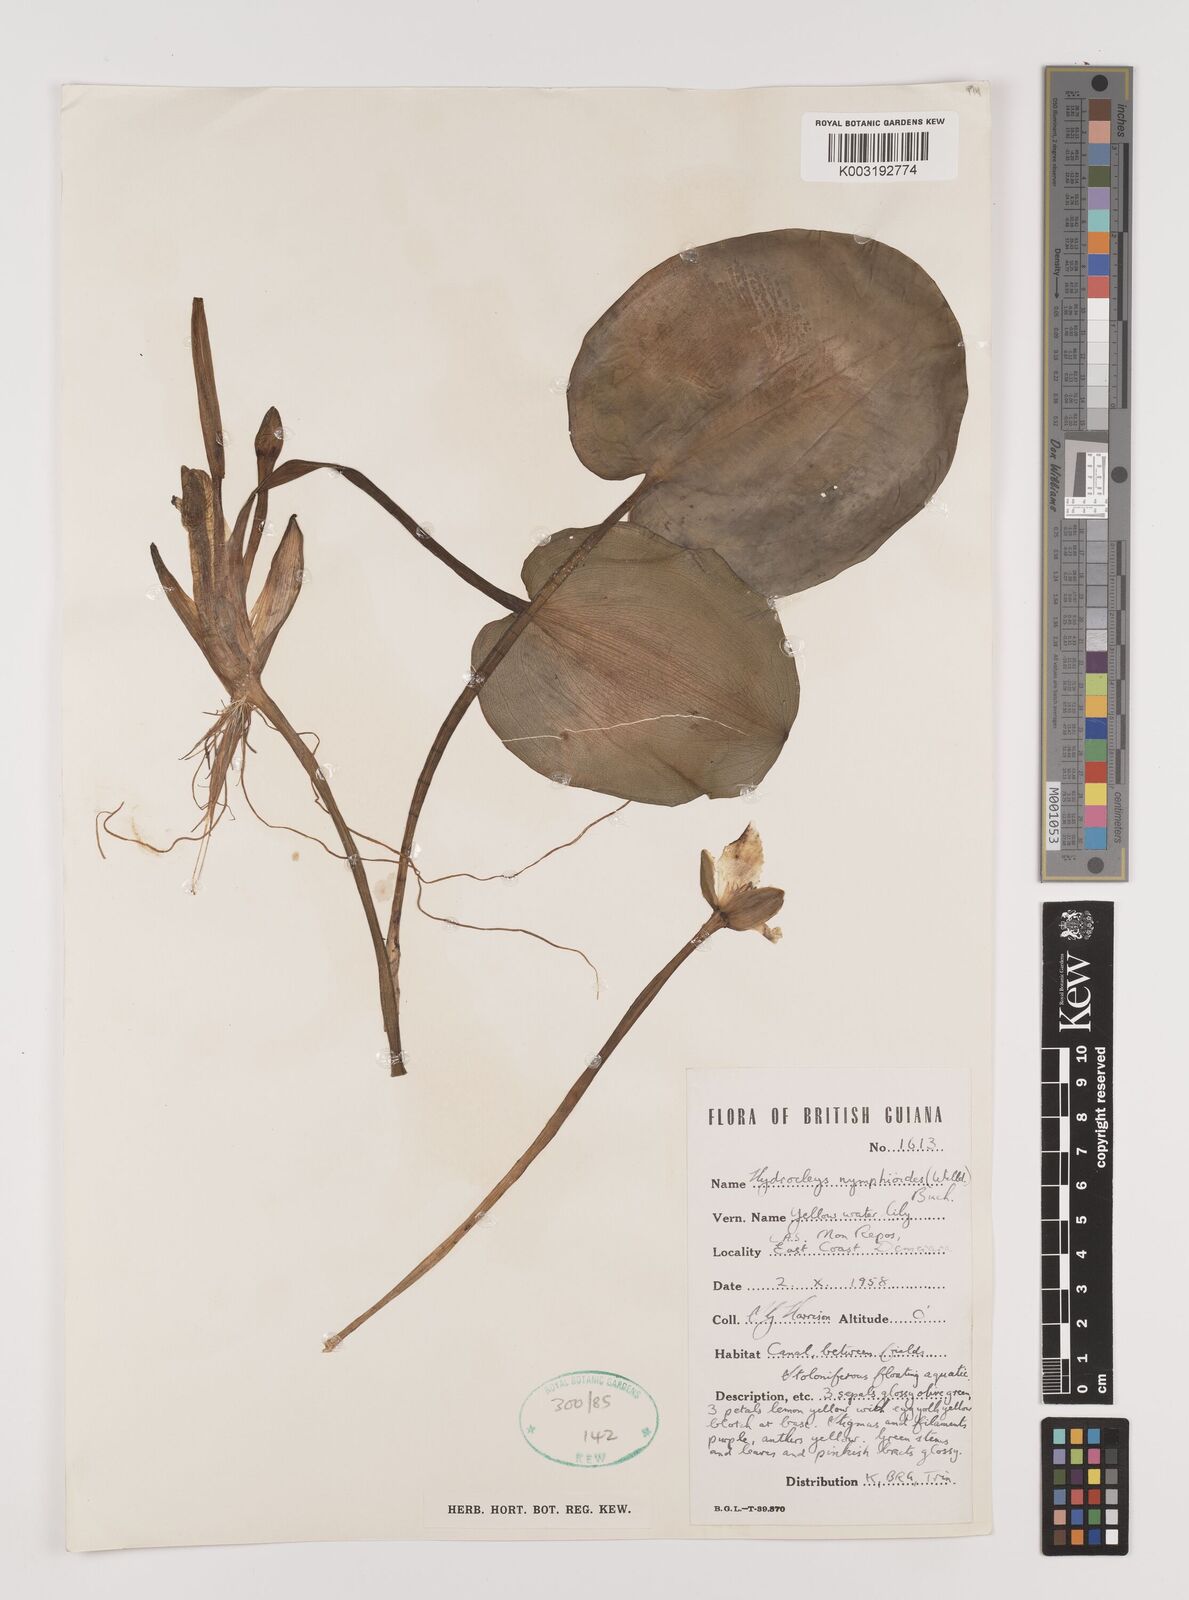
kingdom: Plantae
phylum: Tracheophyta
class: Liliopsida
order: Alismatales
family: Alismataceae
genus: Hydrocleys
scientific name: Hydrocleys nymphoides
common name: Water-poppy
